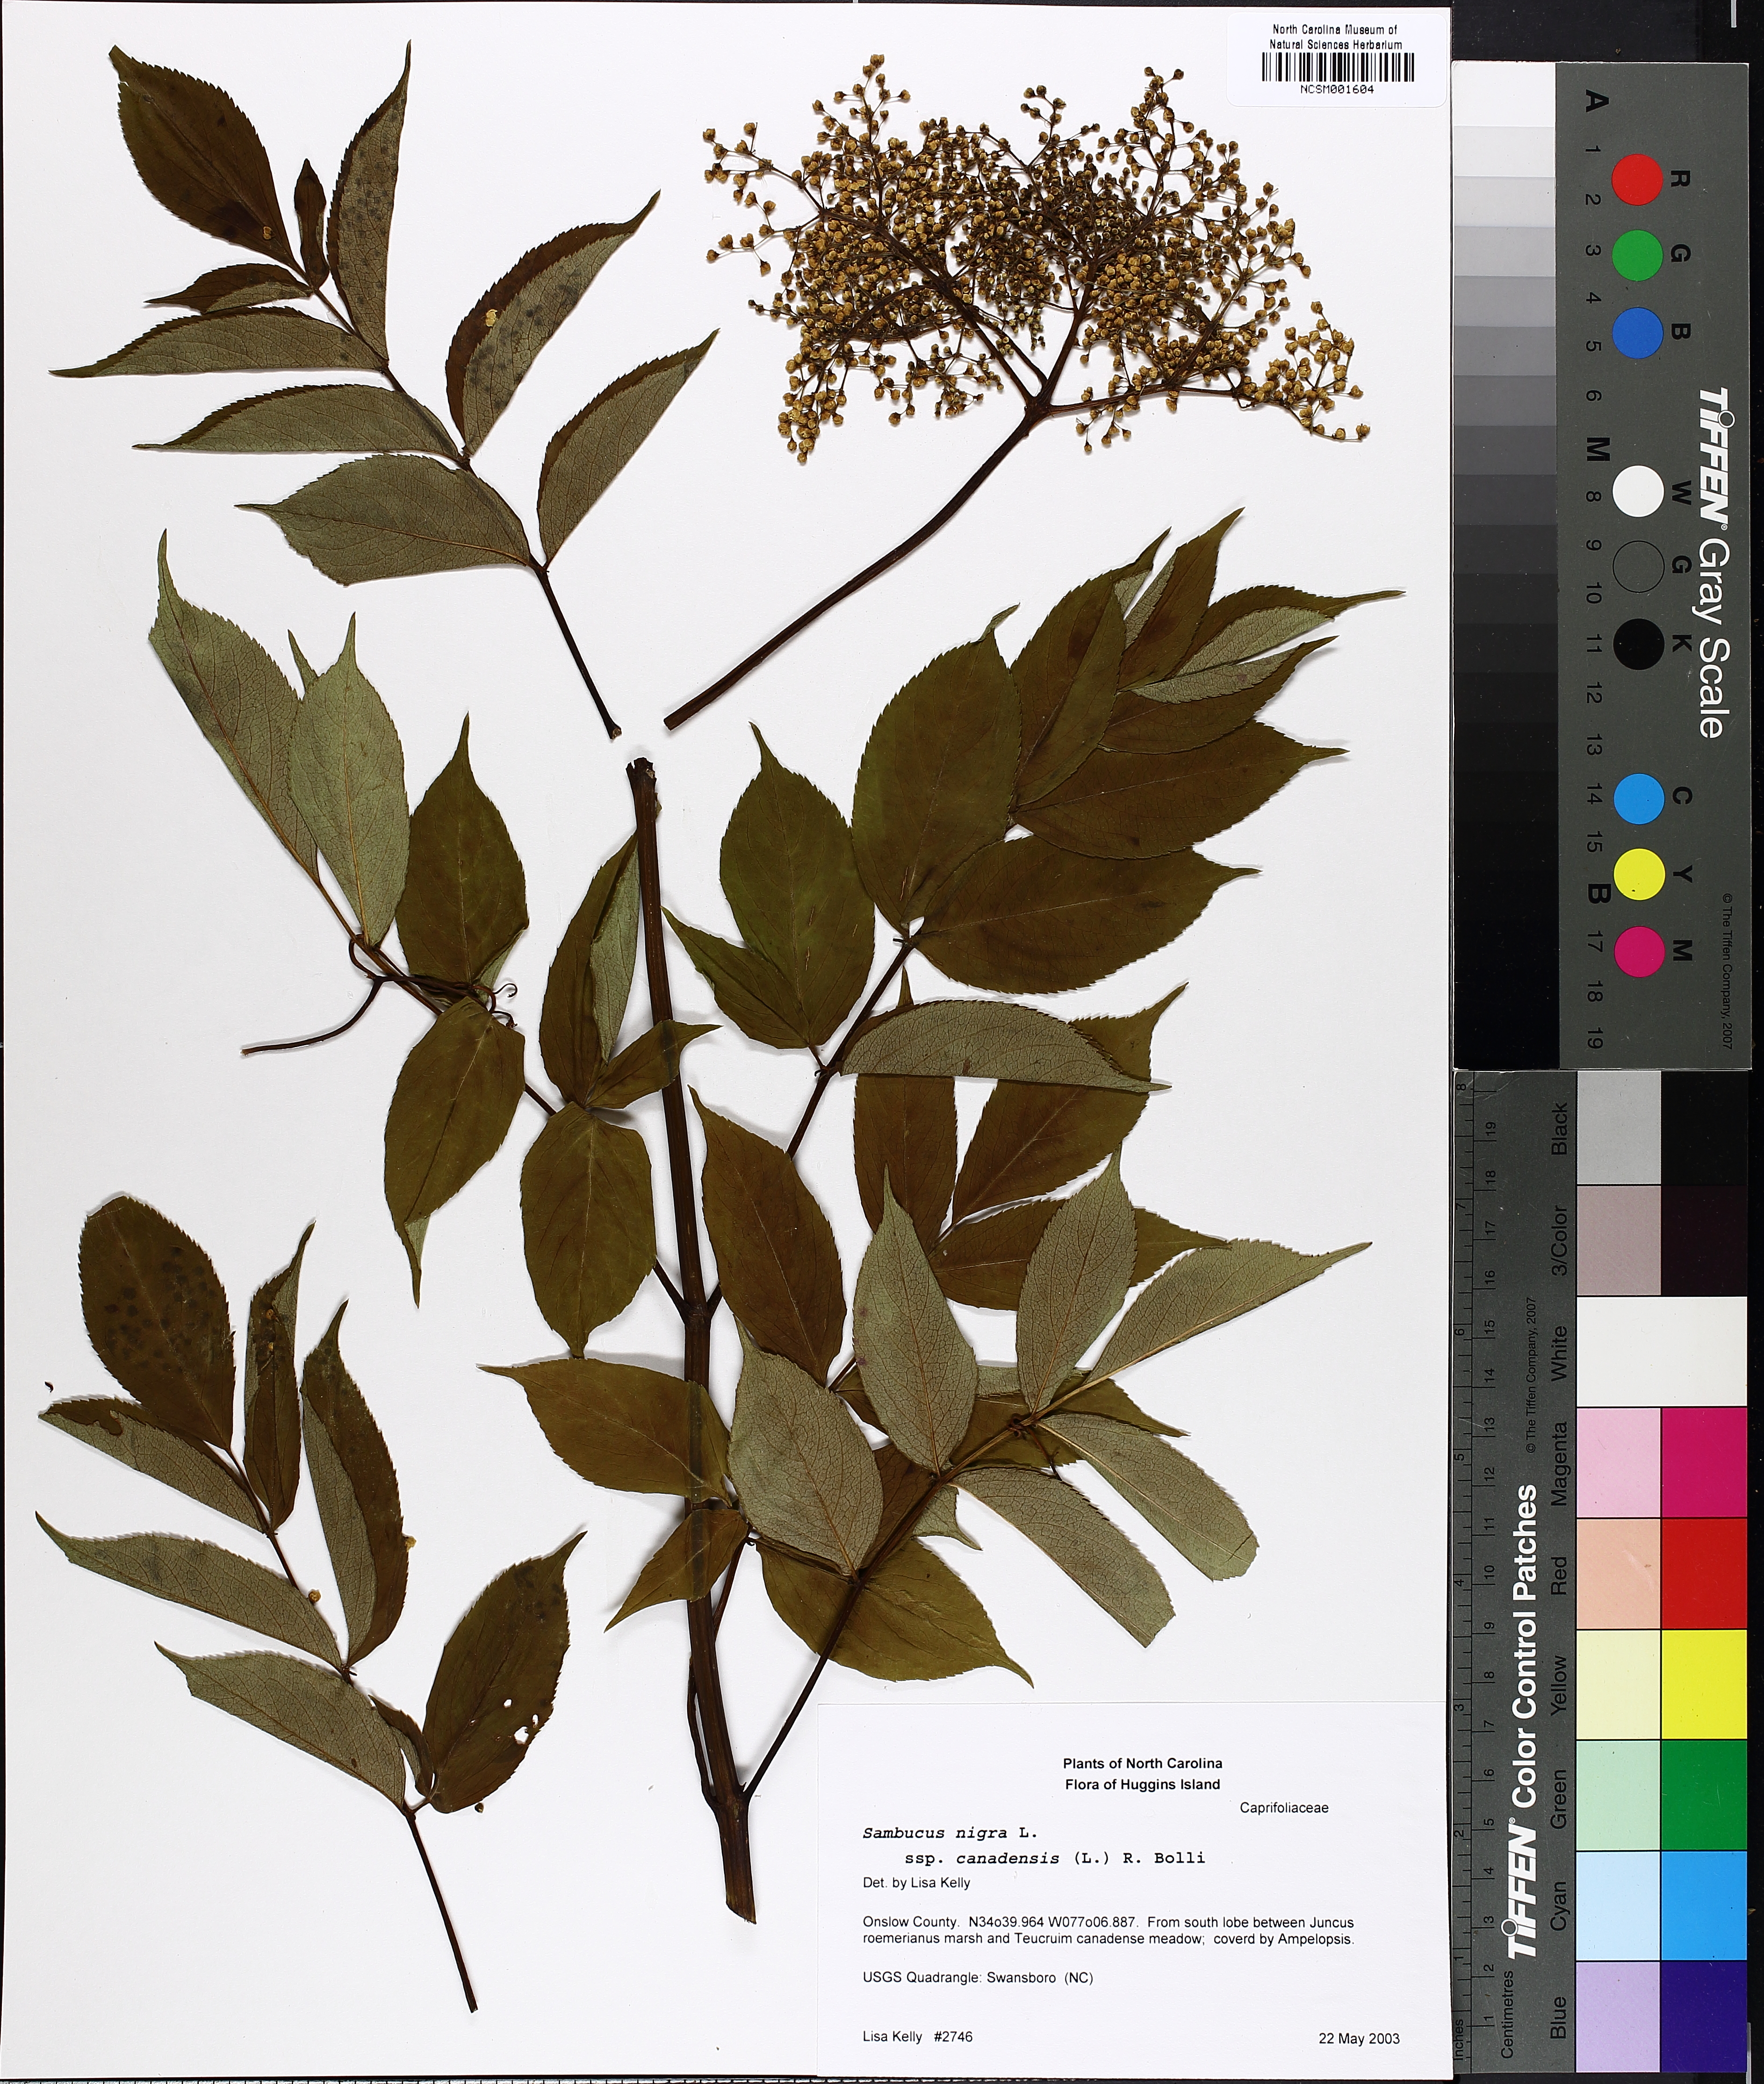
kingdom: Plantae
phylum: Tracheophyta
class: Magnoliopsida
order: Dipsacales
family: Viburnaceae
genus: Sambucus
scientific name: Sambucus canadensis
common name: American elder
